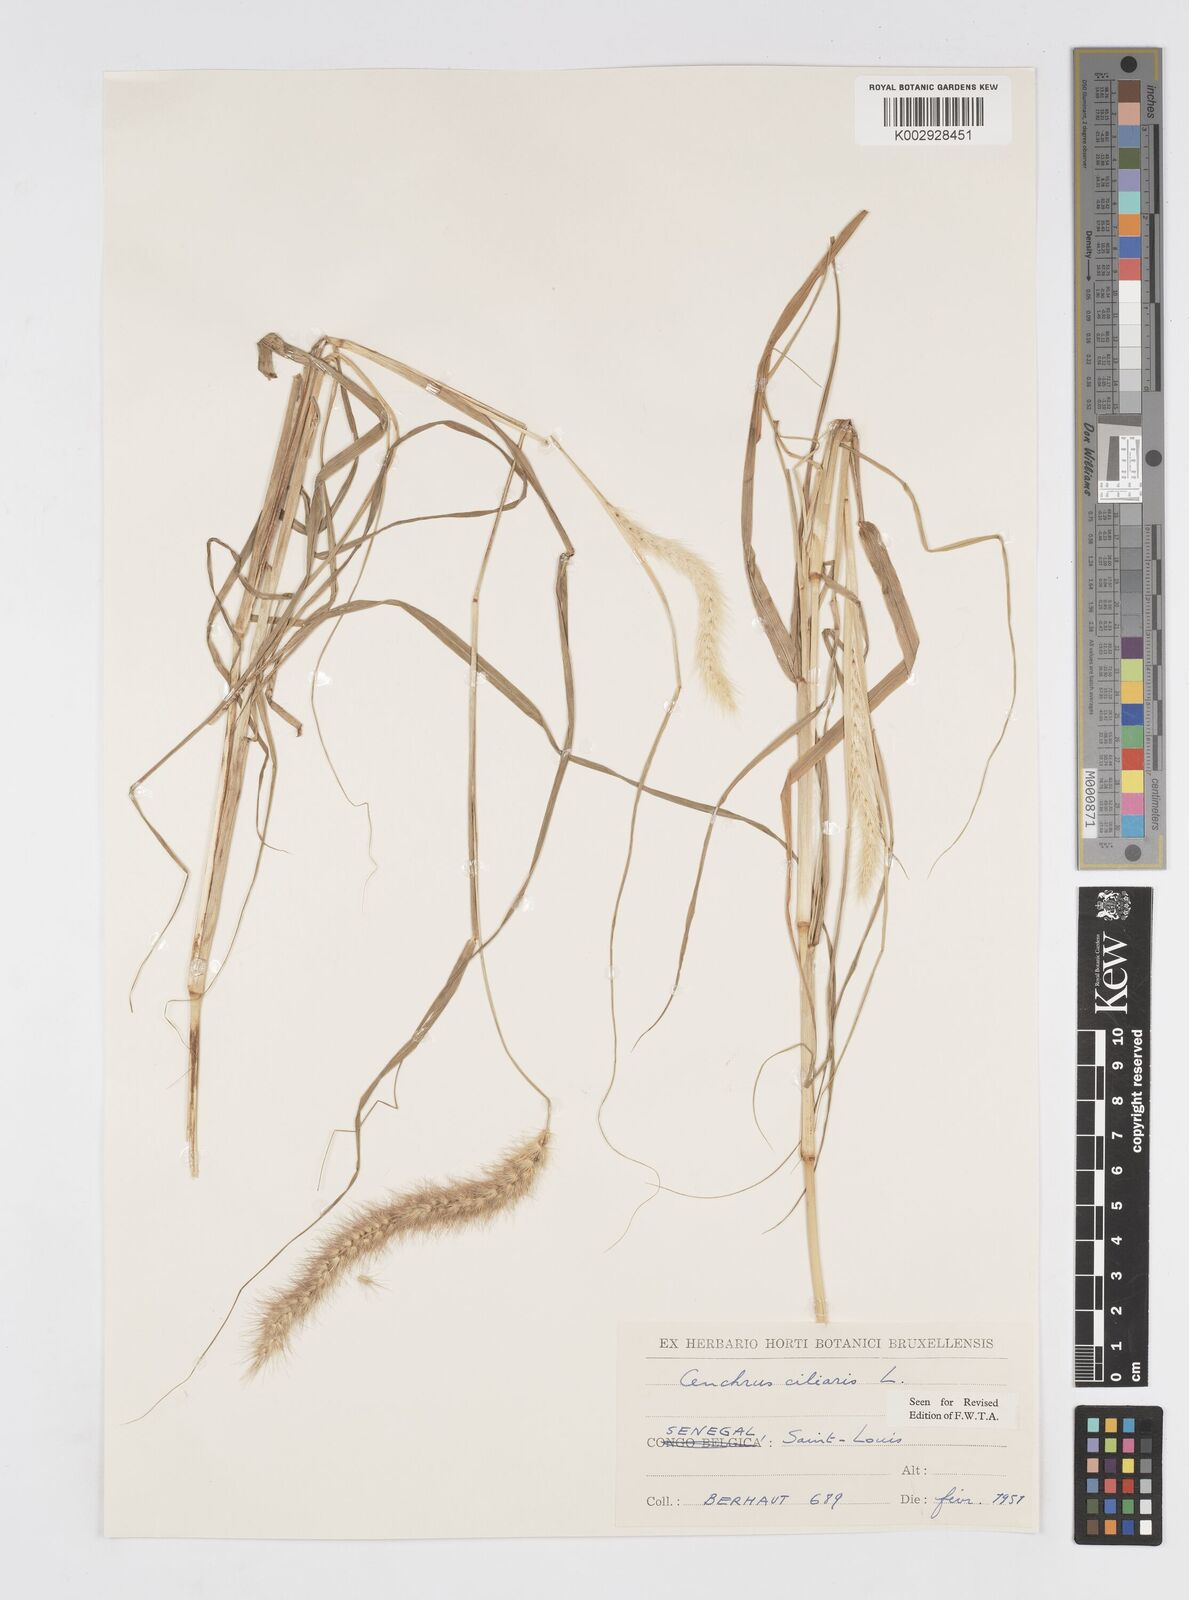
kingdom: Plantae
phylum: Tracheophyta
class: Liliopsida
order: Poales
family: Poaceae
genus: Cenchrus
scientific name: Cenchrus ciliaris
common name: Buffelgrass
